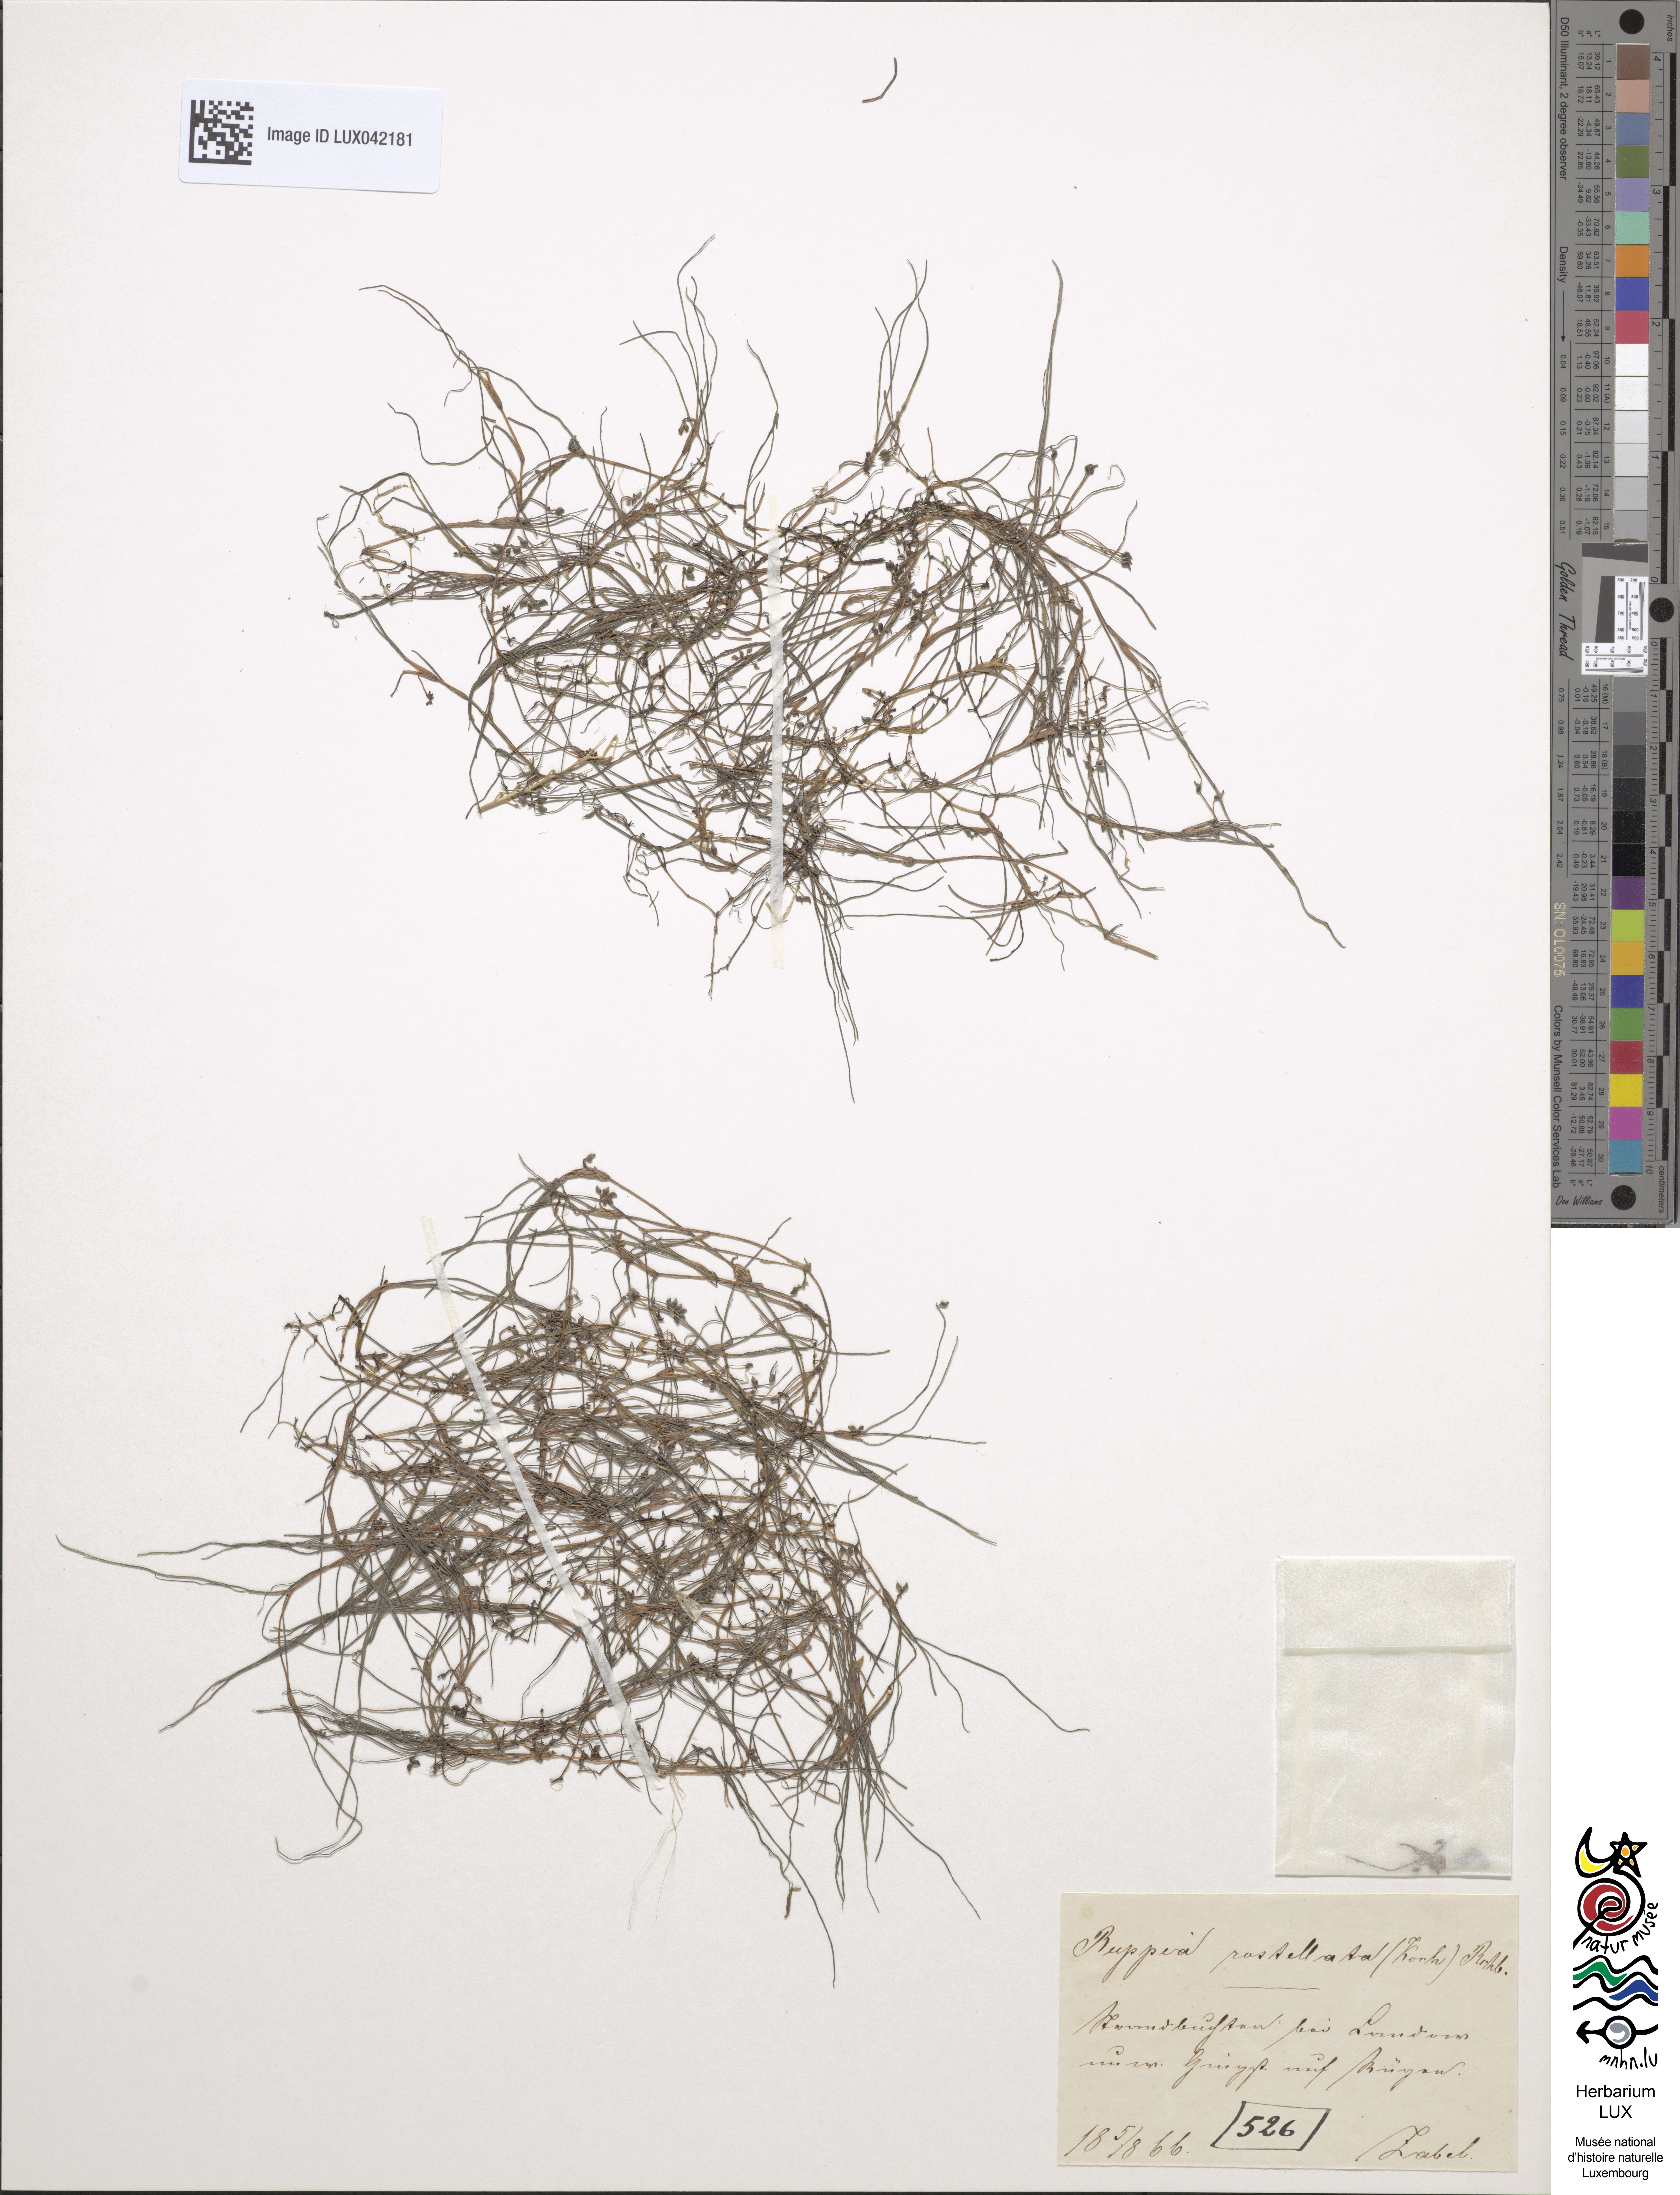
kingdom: Plantae
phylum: Tracheophyta
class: Liliopsida
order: Alismatales
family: Ruppiaceae
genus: Ruppia
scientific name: Ruppia maritima
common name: Beaked tasselweed
